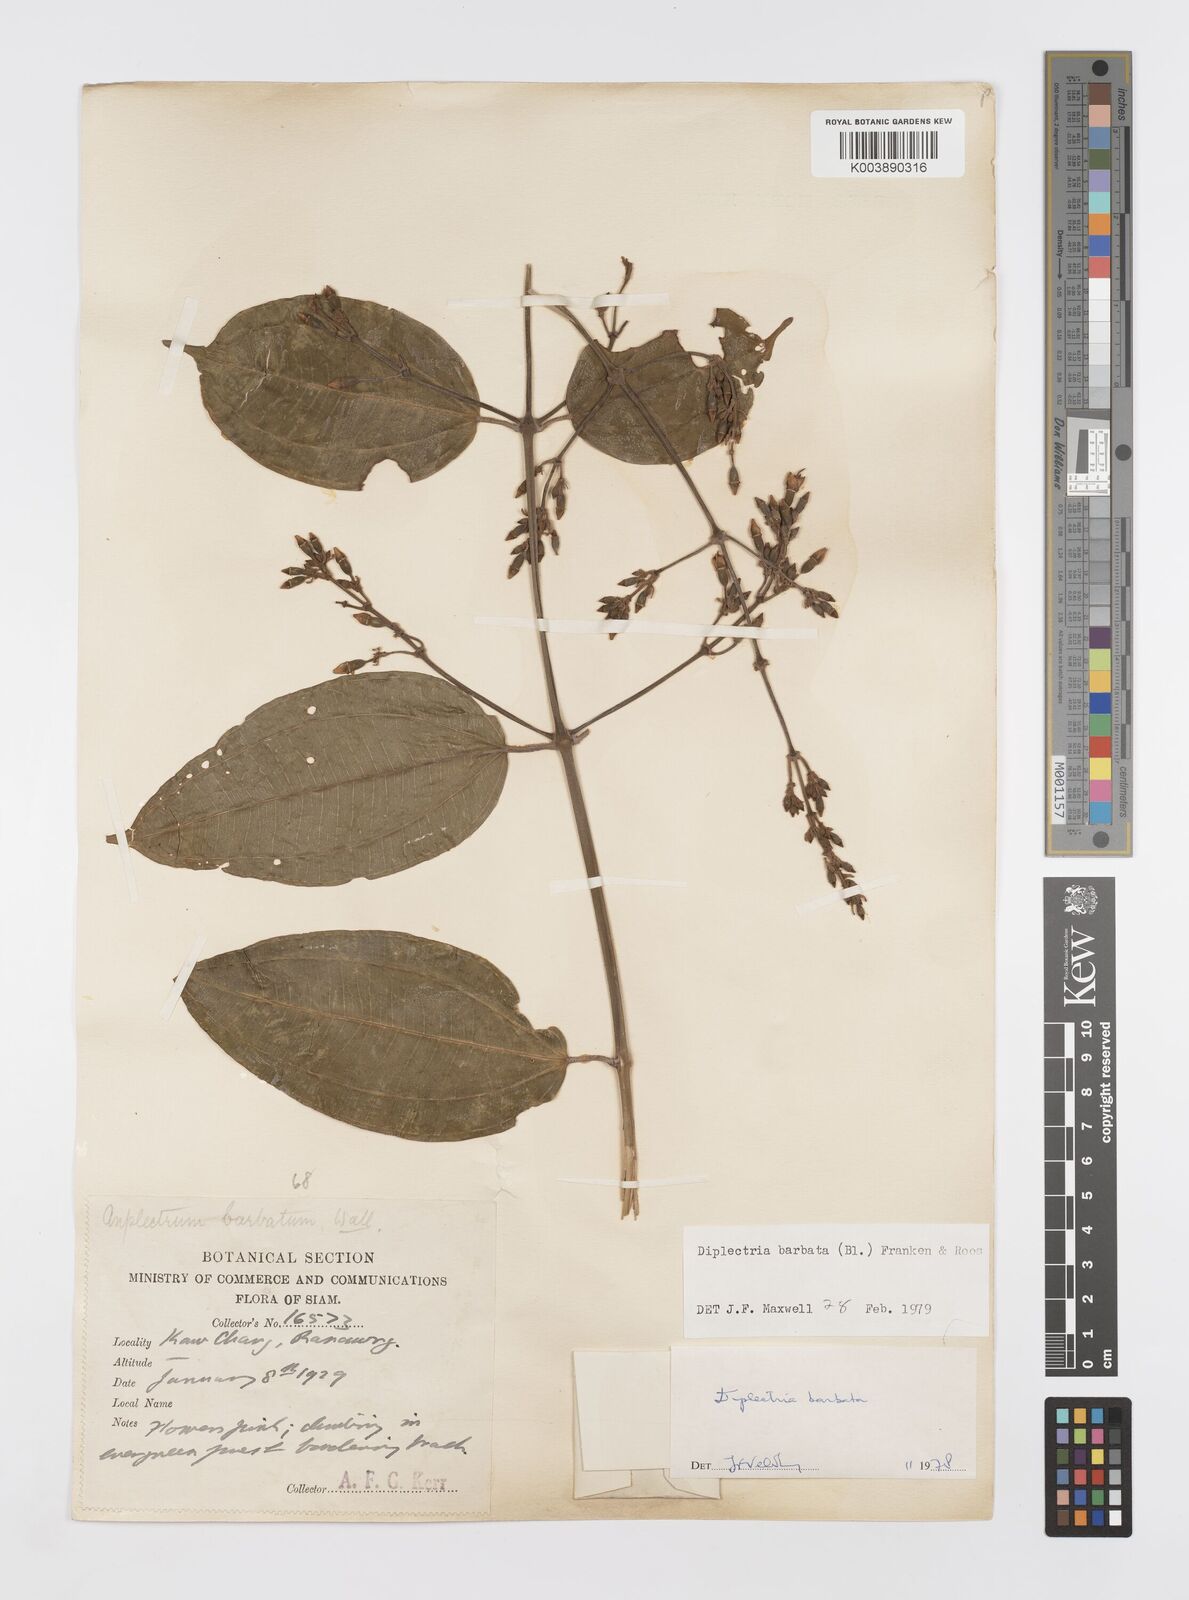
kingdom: Plantae
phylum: Tracheophyta
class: Magnoliopsida
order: Myrtales
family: Melastomataceae
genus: Diplectria
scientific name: Diplectria barbata
